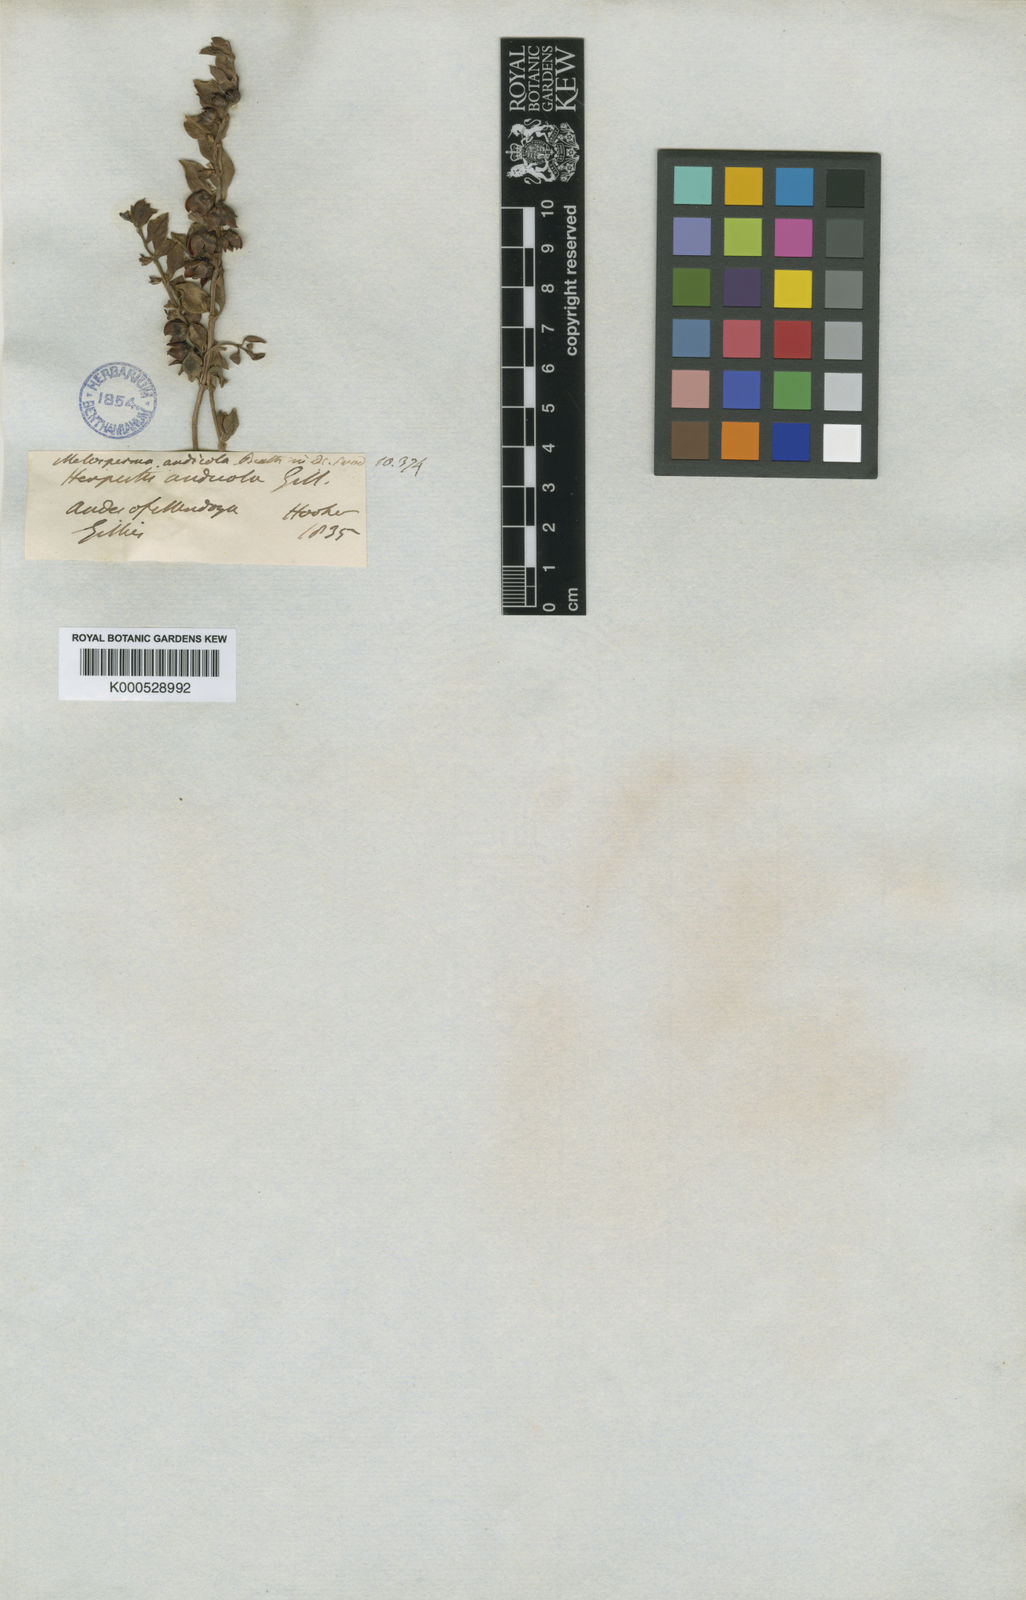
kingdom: Plantae
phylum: Tracheophyta
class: Magnoliopsida
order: Lamiales
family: Plantaginaceae
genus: Melosperma
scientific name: Melosperma andicola
